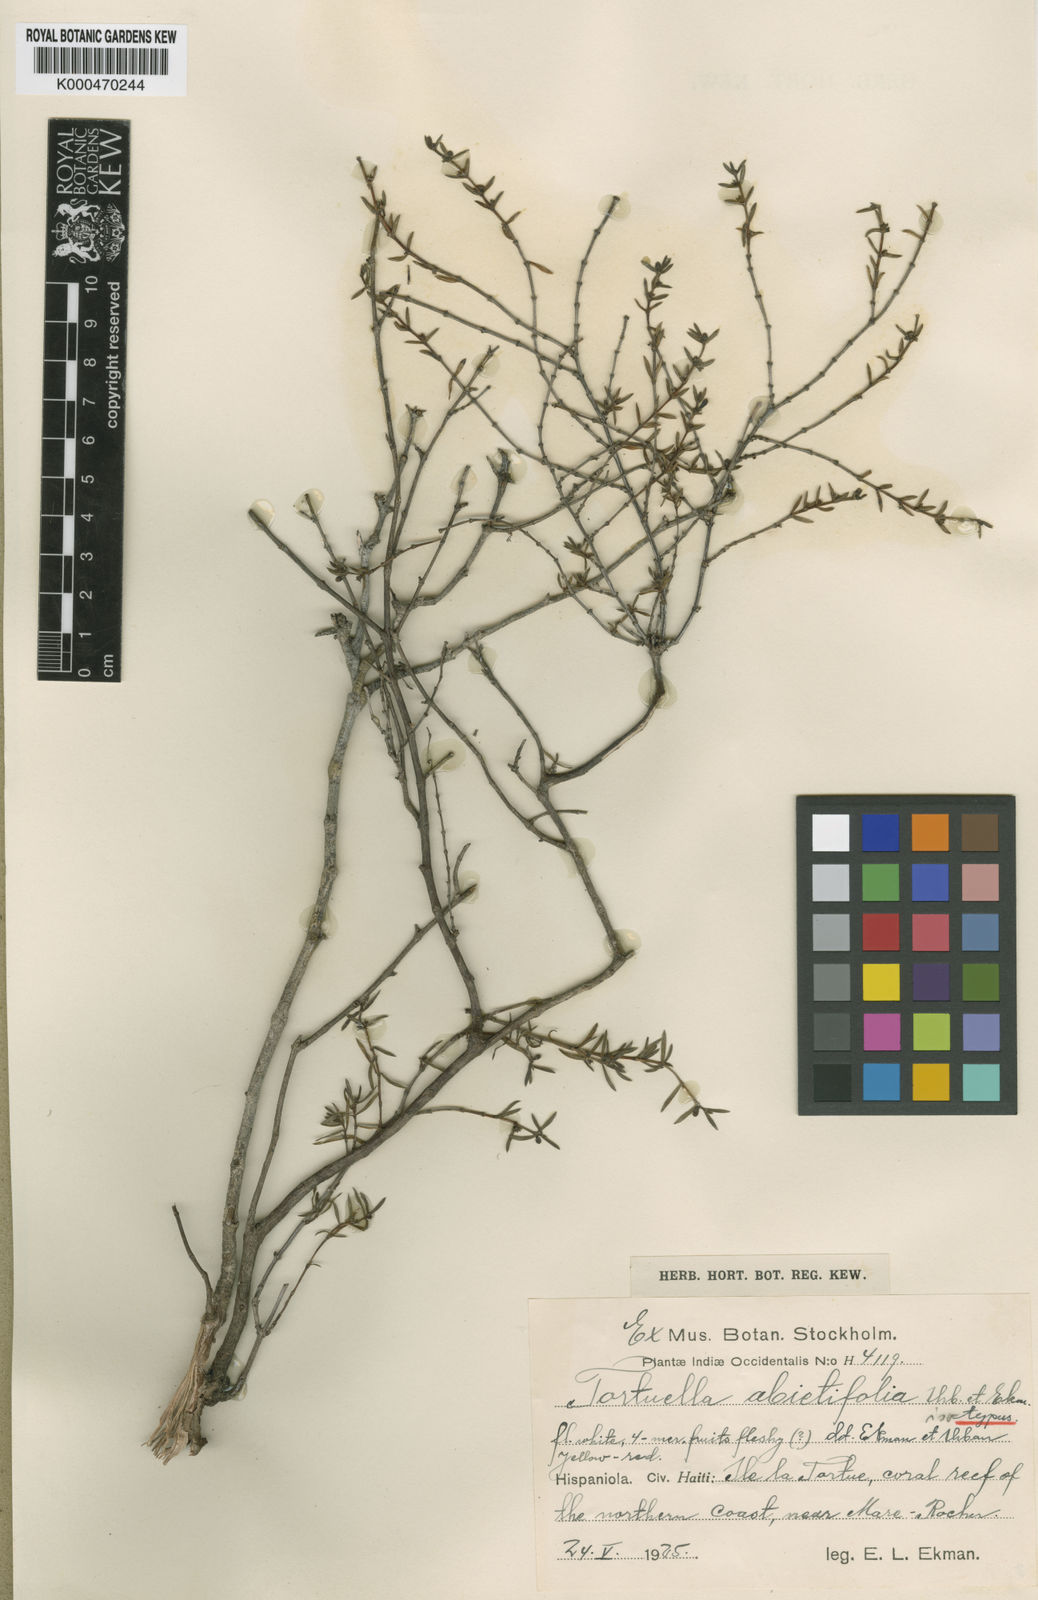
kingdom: Plantae
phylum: Tracheophyta
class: Magnoliopsida
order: Gentianales
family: Rubiaceae
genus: Tortuella
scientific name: Tortuella abietifolia
